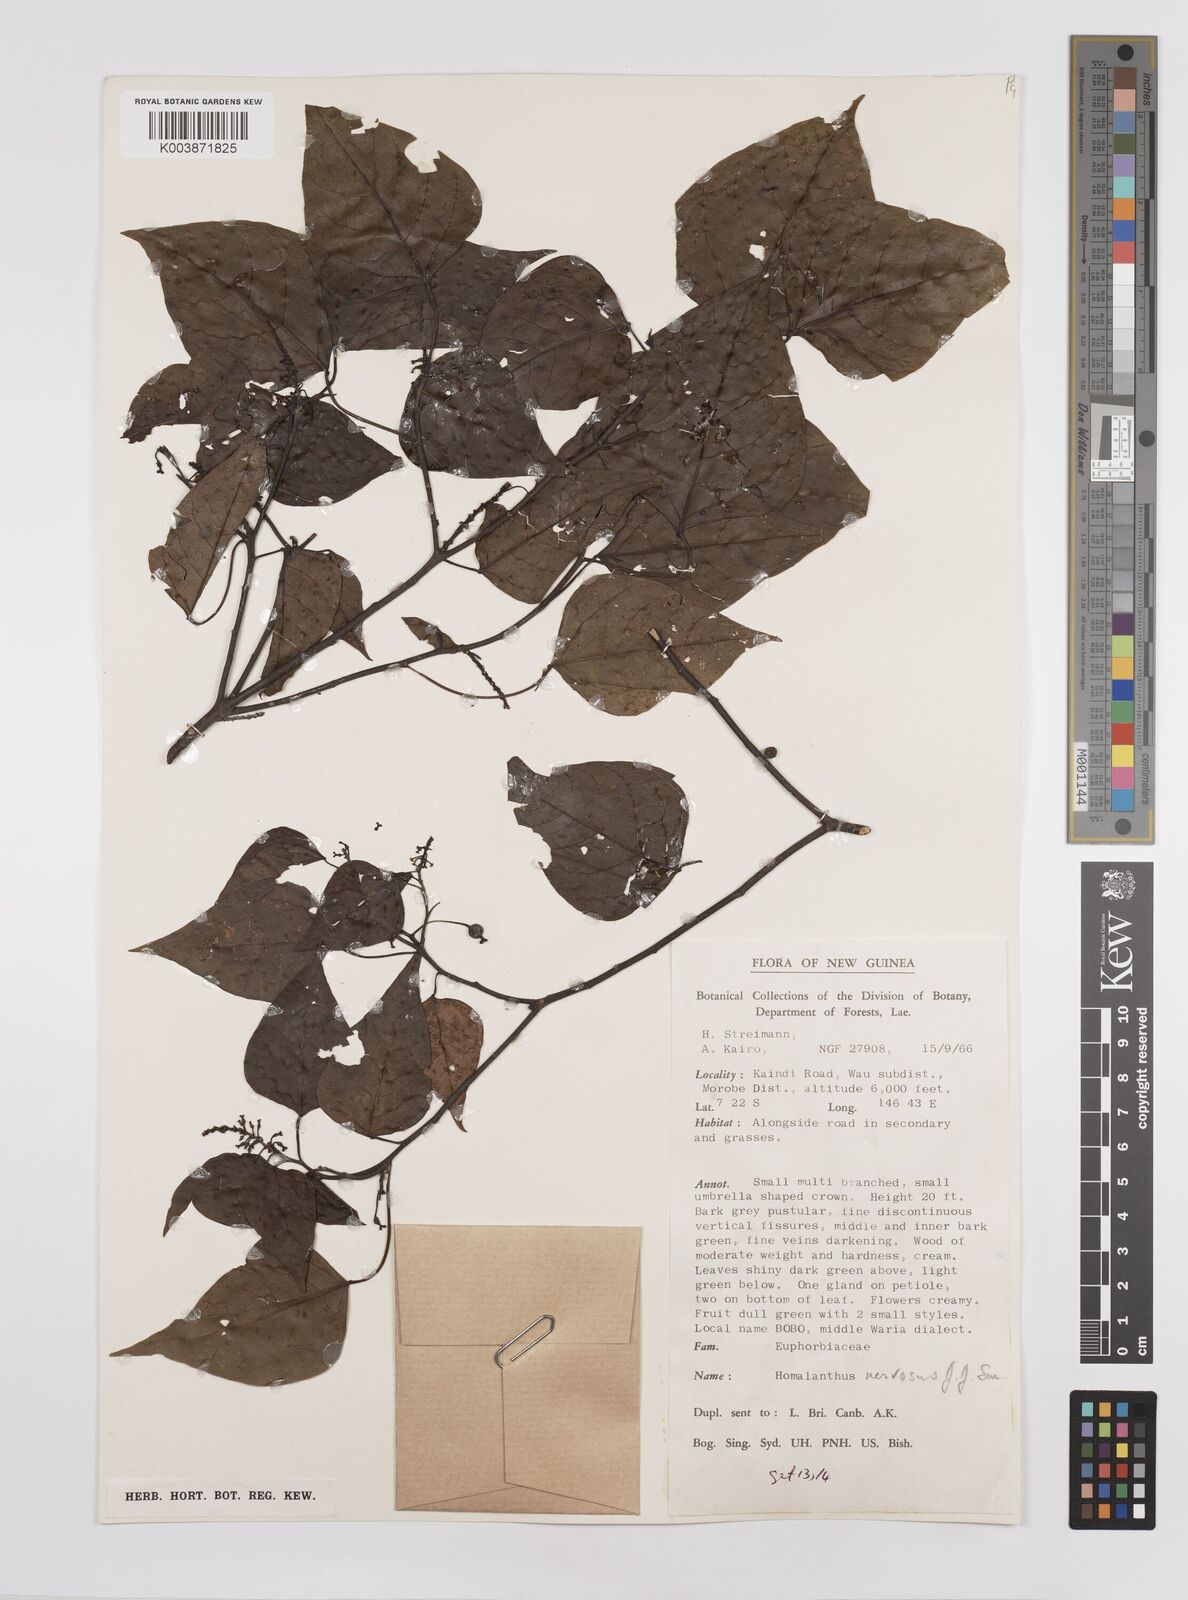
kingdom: Plantae
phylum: Tracheophyta
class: Magnoliopsida
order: Malpighiales
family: Euphorbiaceae
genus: Homalanthus
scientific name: Homalanthus nervosus
